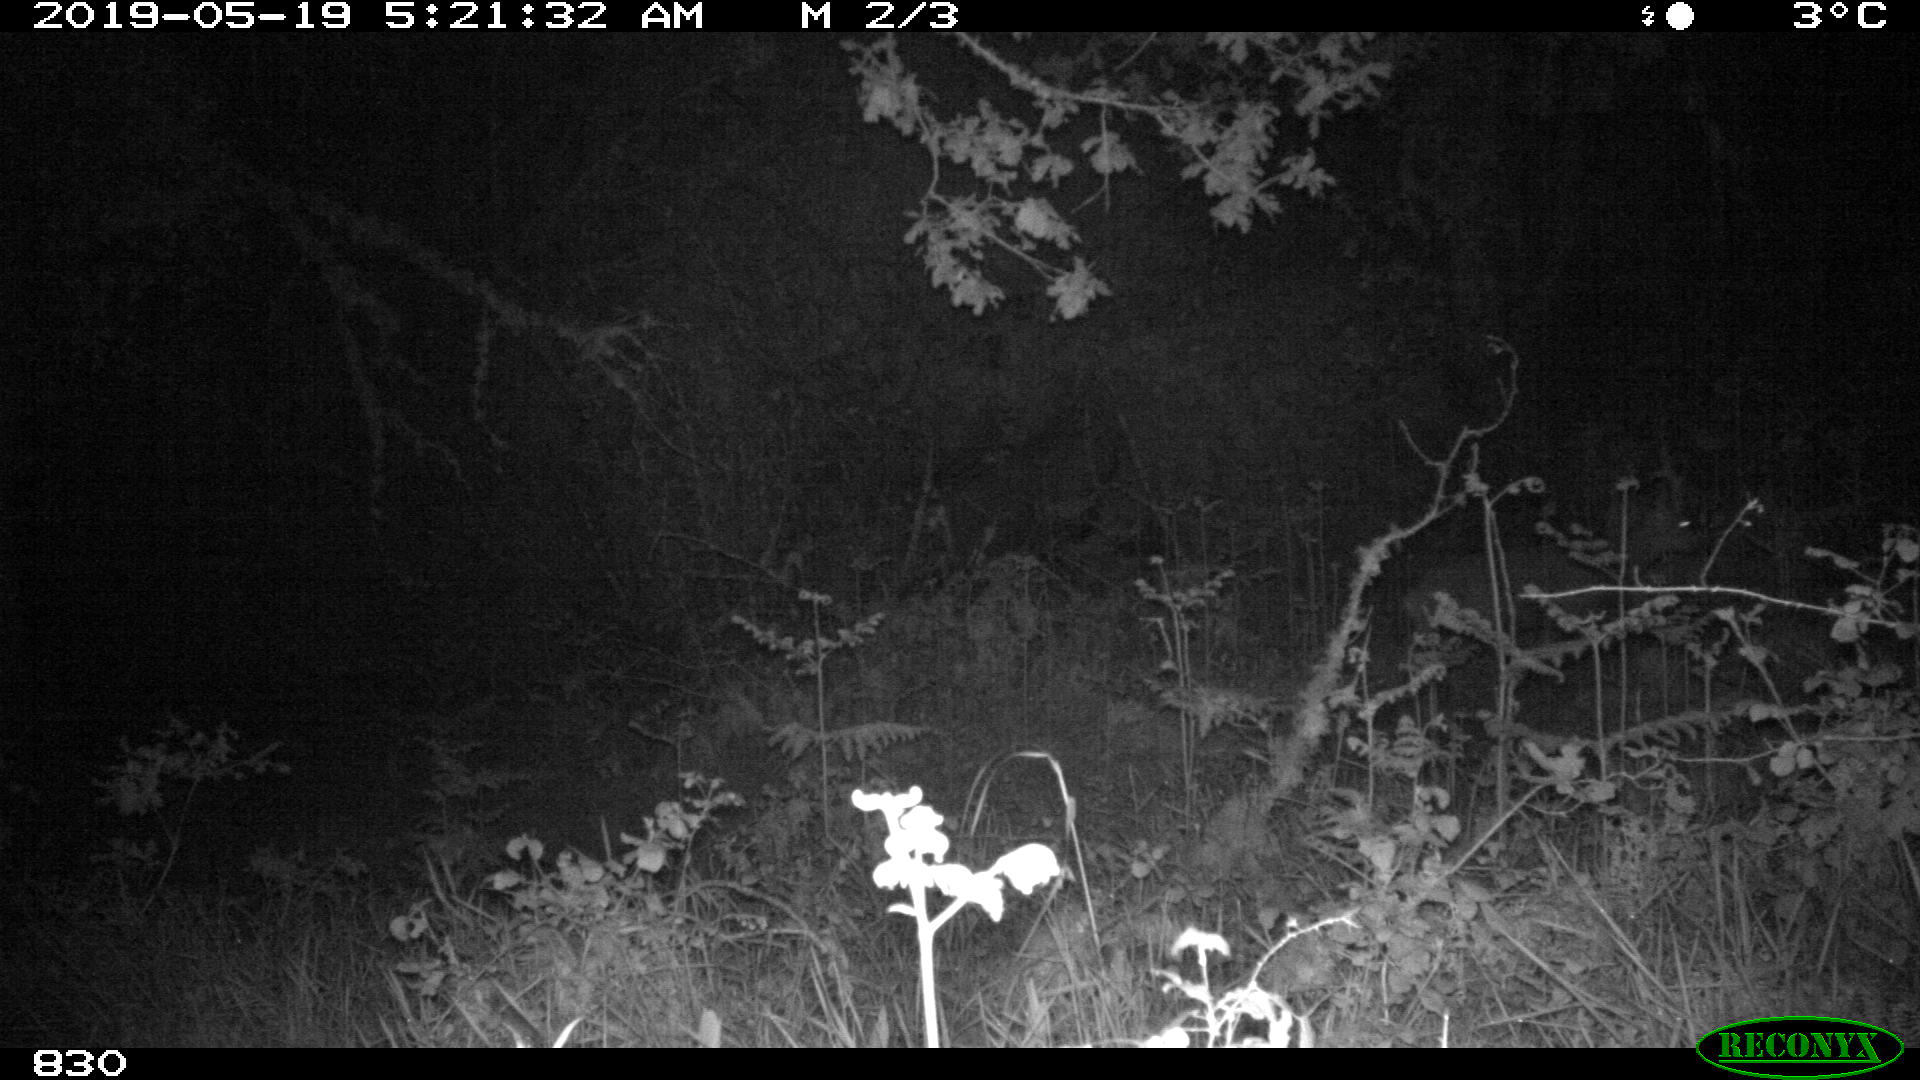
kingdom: Animalia
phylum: Chordata
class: Mammalia
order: Artiodactyla
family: Cervidae
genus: Capreolus
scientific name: Capreolus capreolus
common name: Western roe deer
